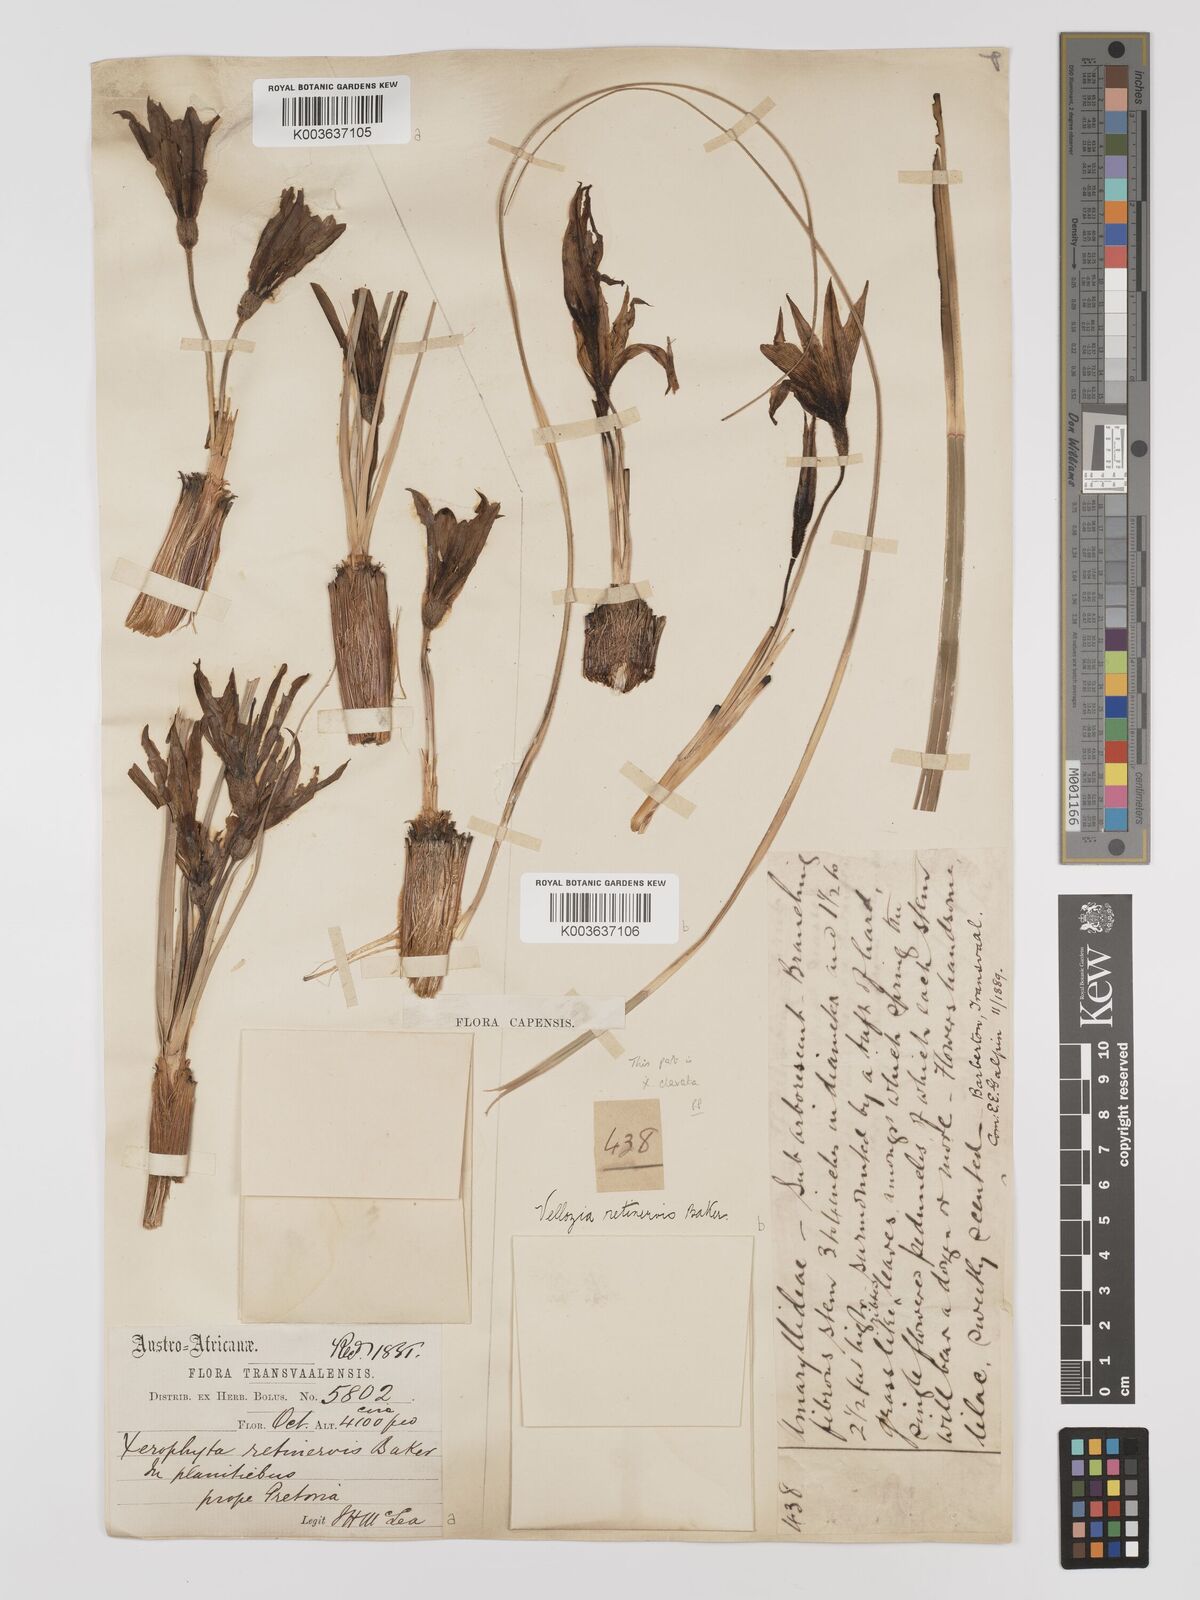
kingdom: Plantae
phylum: Tracheophyta
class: Liliopsida
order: Pandanales
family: Velloziaceae
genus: Xerophyta
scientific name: Xerophyta retinervis
